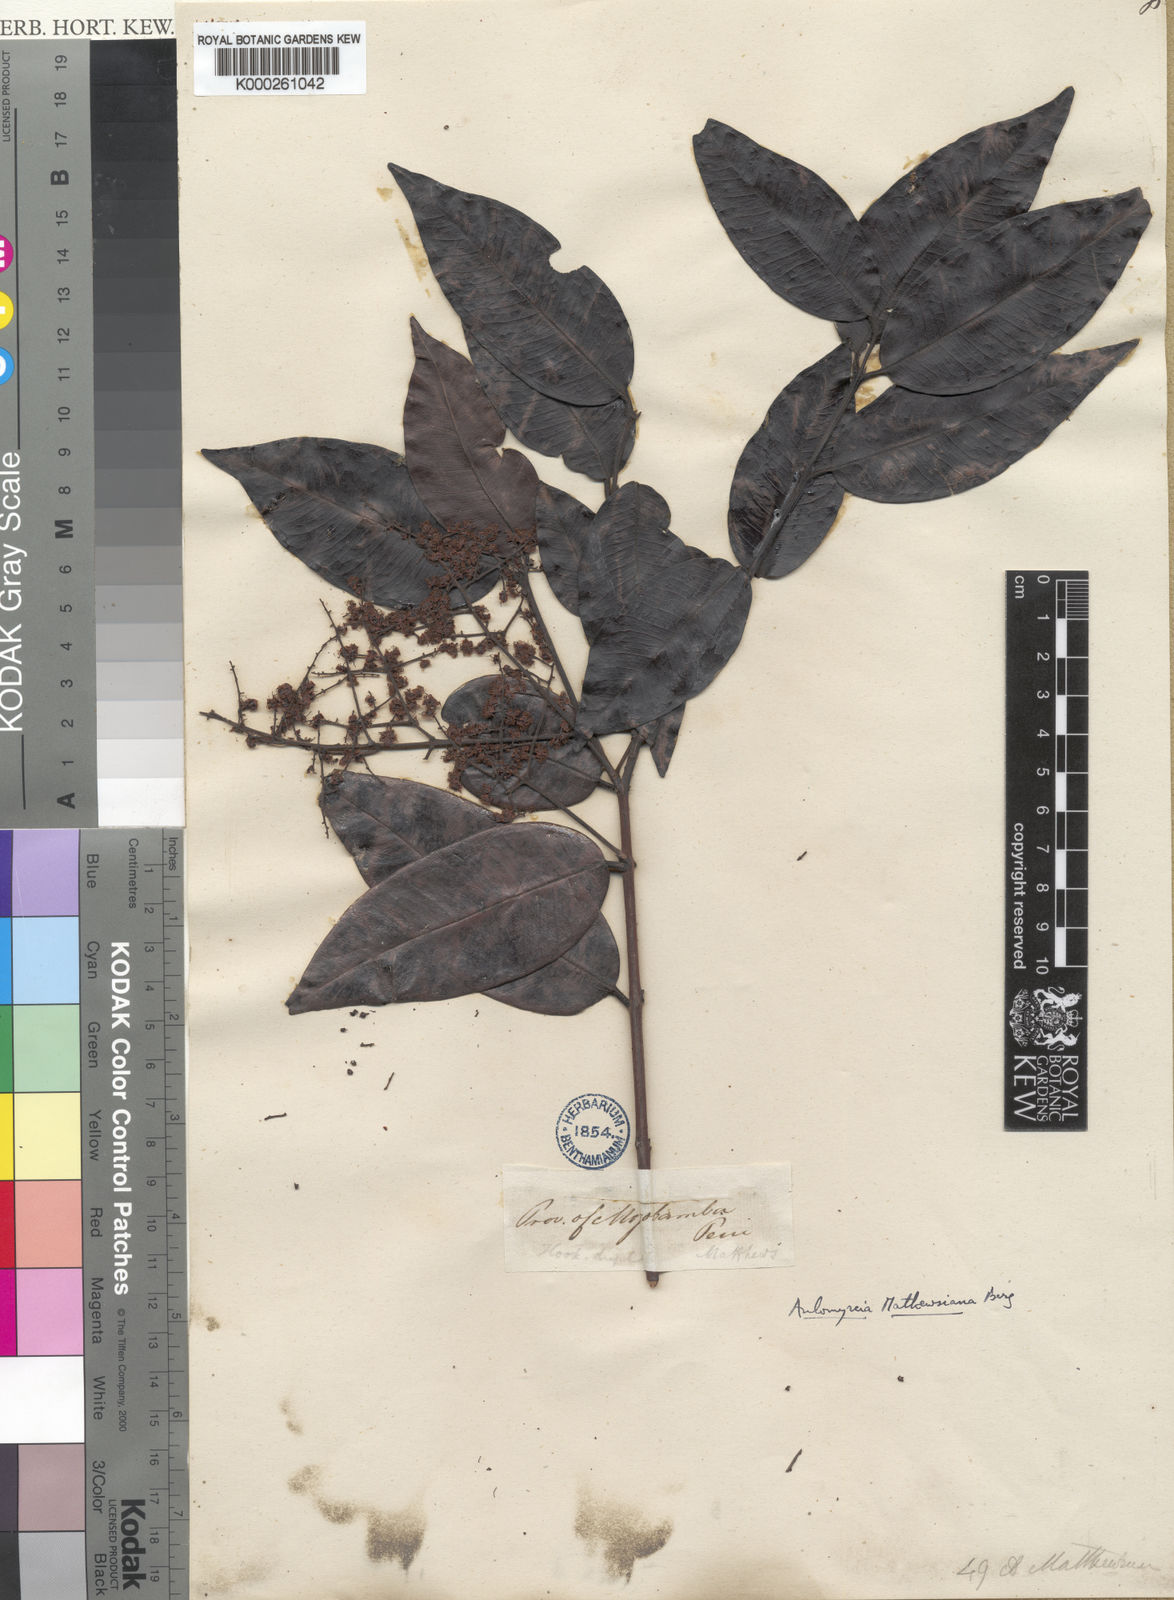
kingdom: Plantae
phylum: Tracheophyta
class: Magnoliopsida
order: Myrtales
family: Myrtaceae
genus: Myrcia
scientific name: Myrcia mathewsiana
